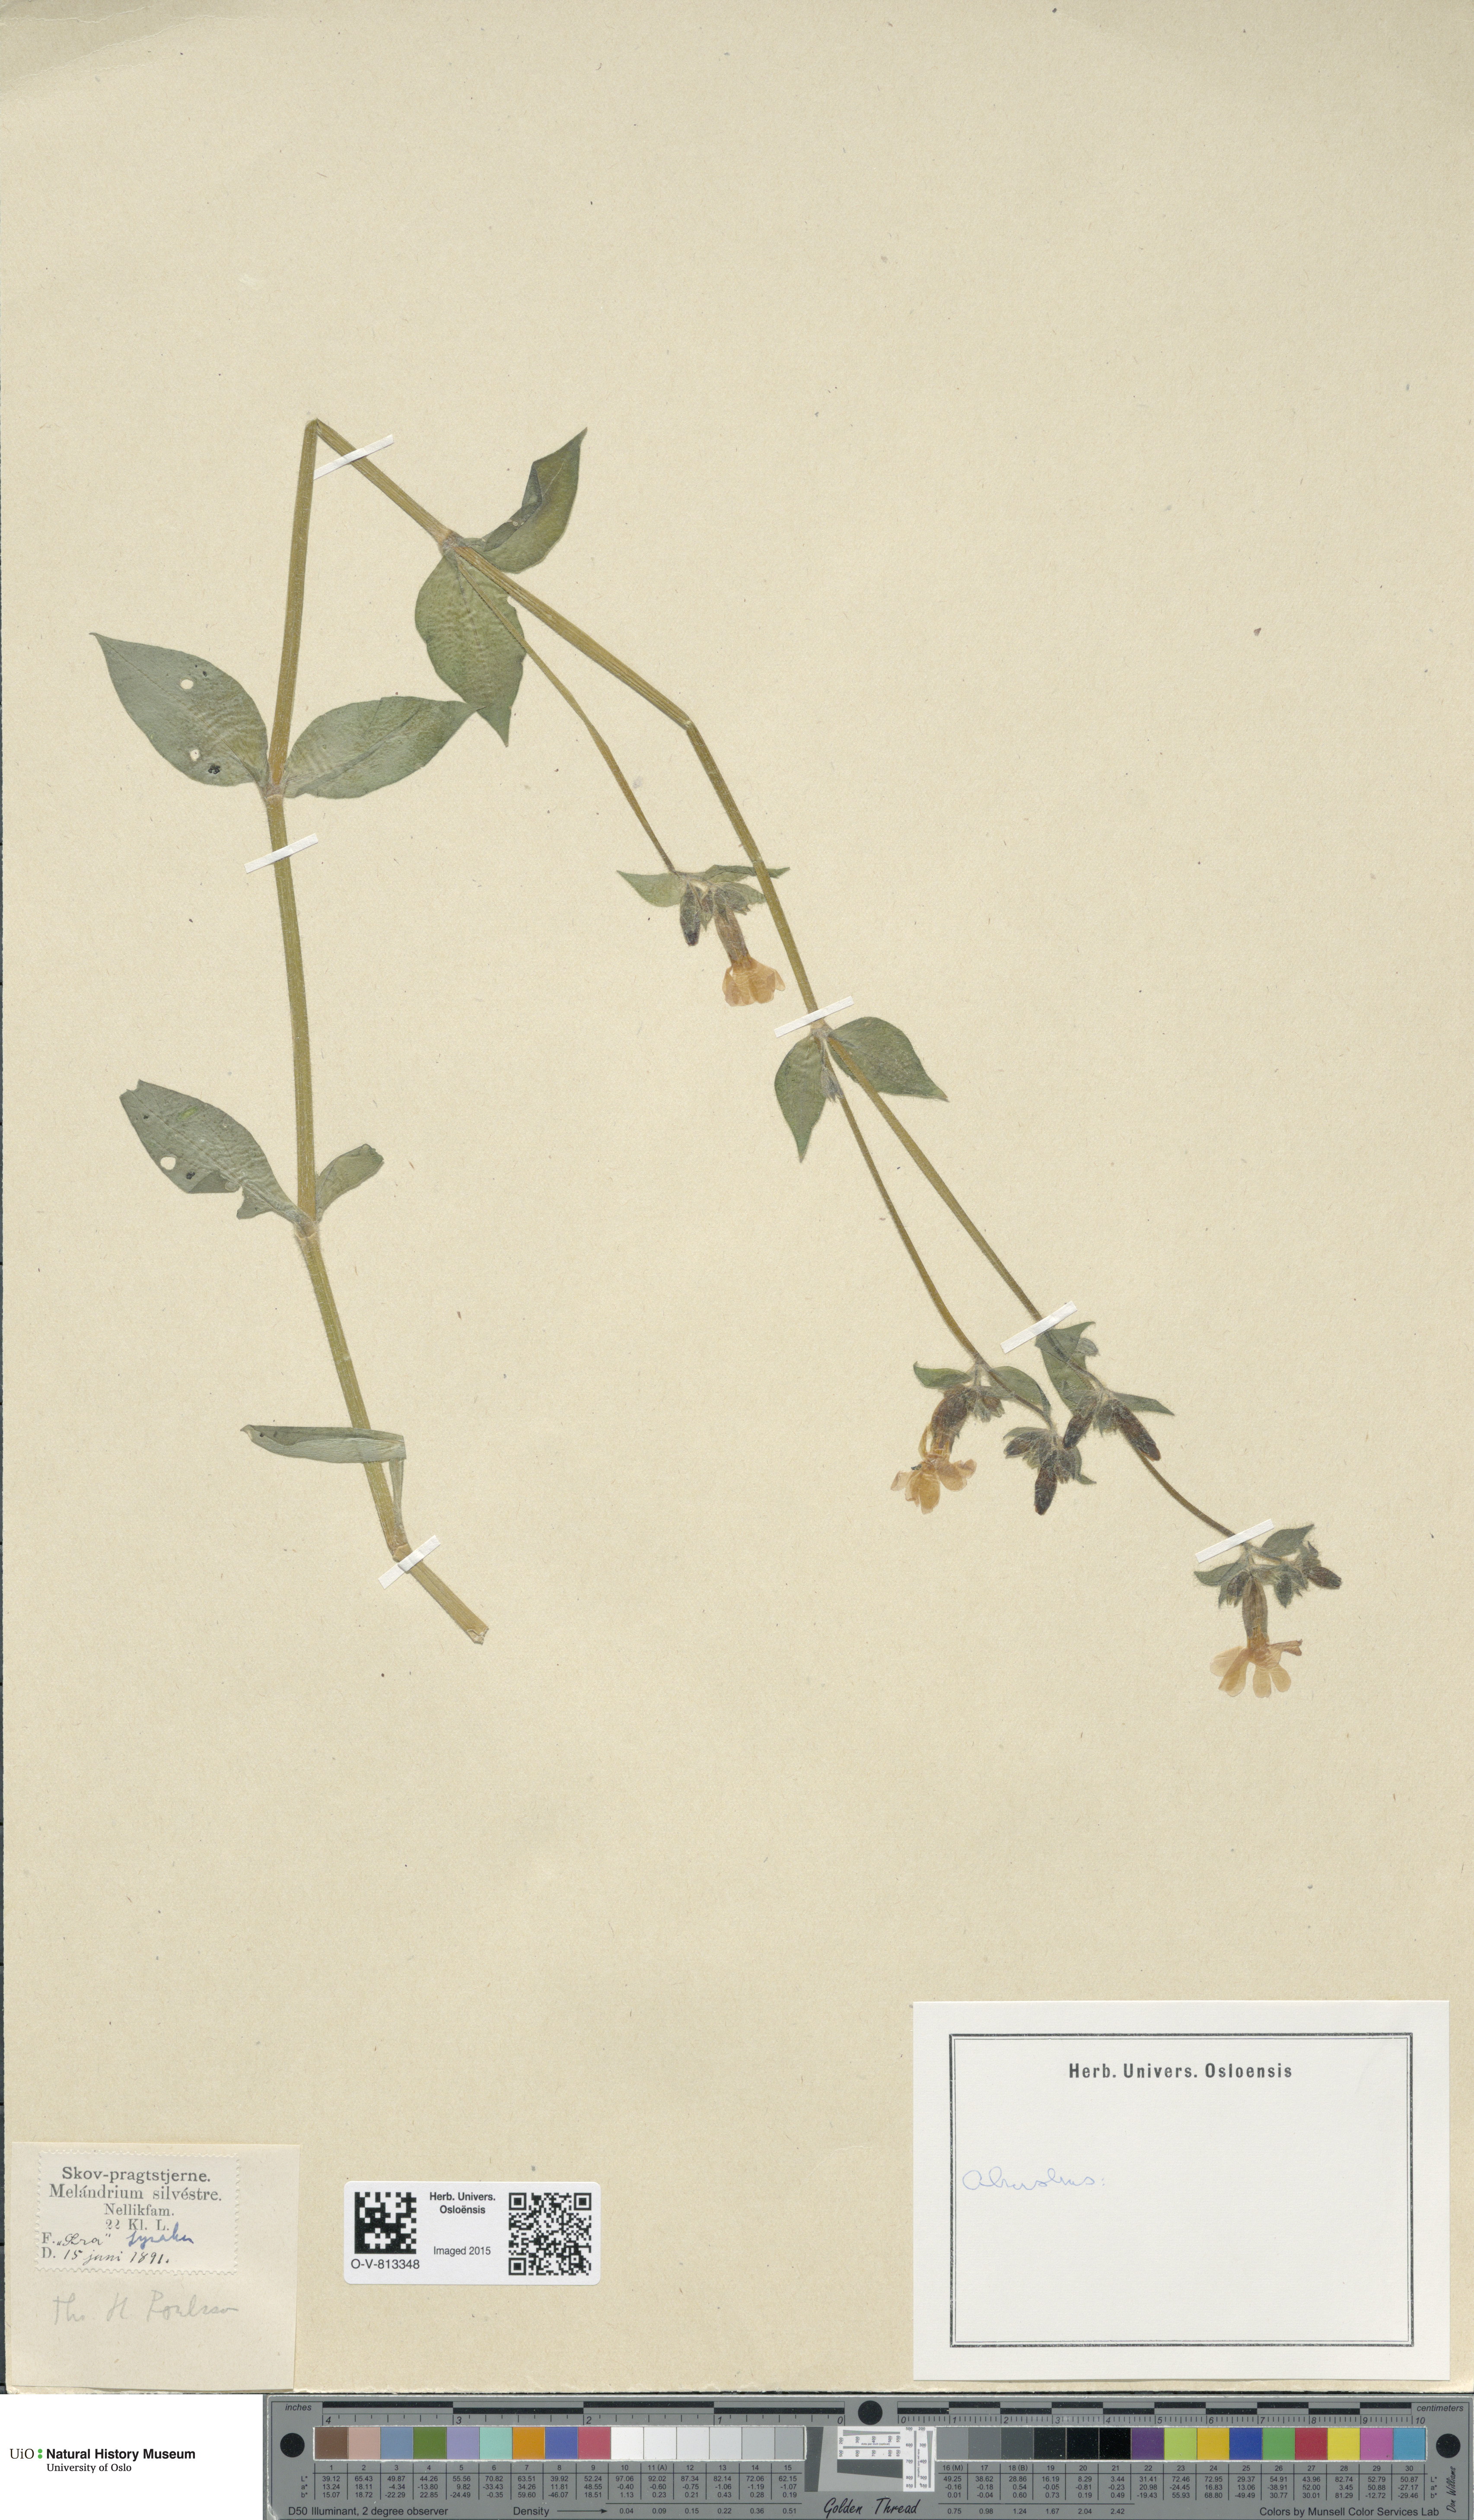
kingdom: Plantae
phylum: Tracheophyta
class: Magnoliopsida
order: Caryophyllales
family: Caryophyllaceae
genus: Silene
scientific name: Silene dioica
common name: Red campion
